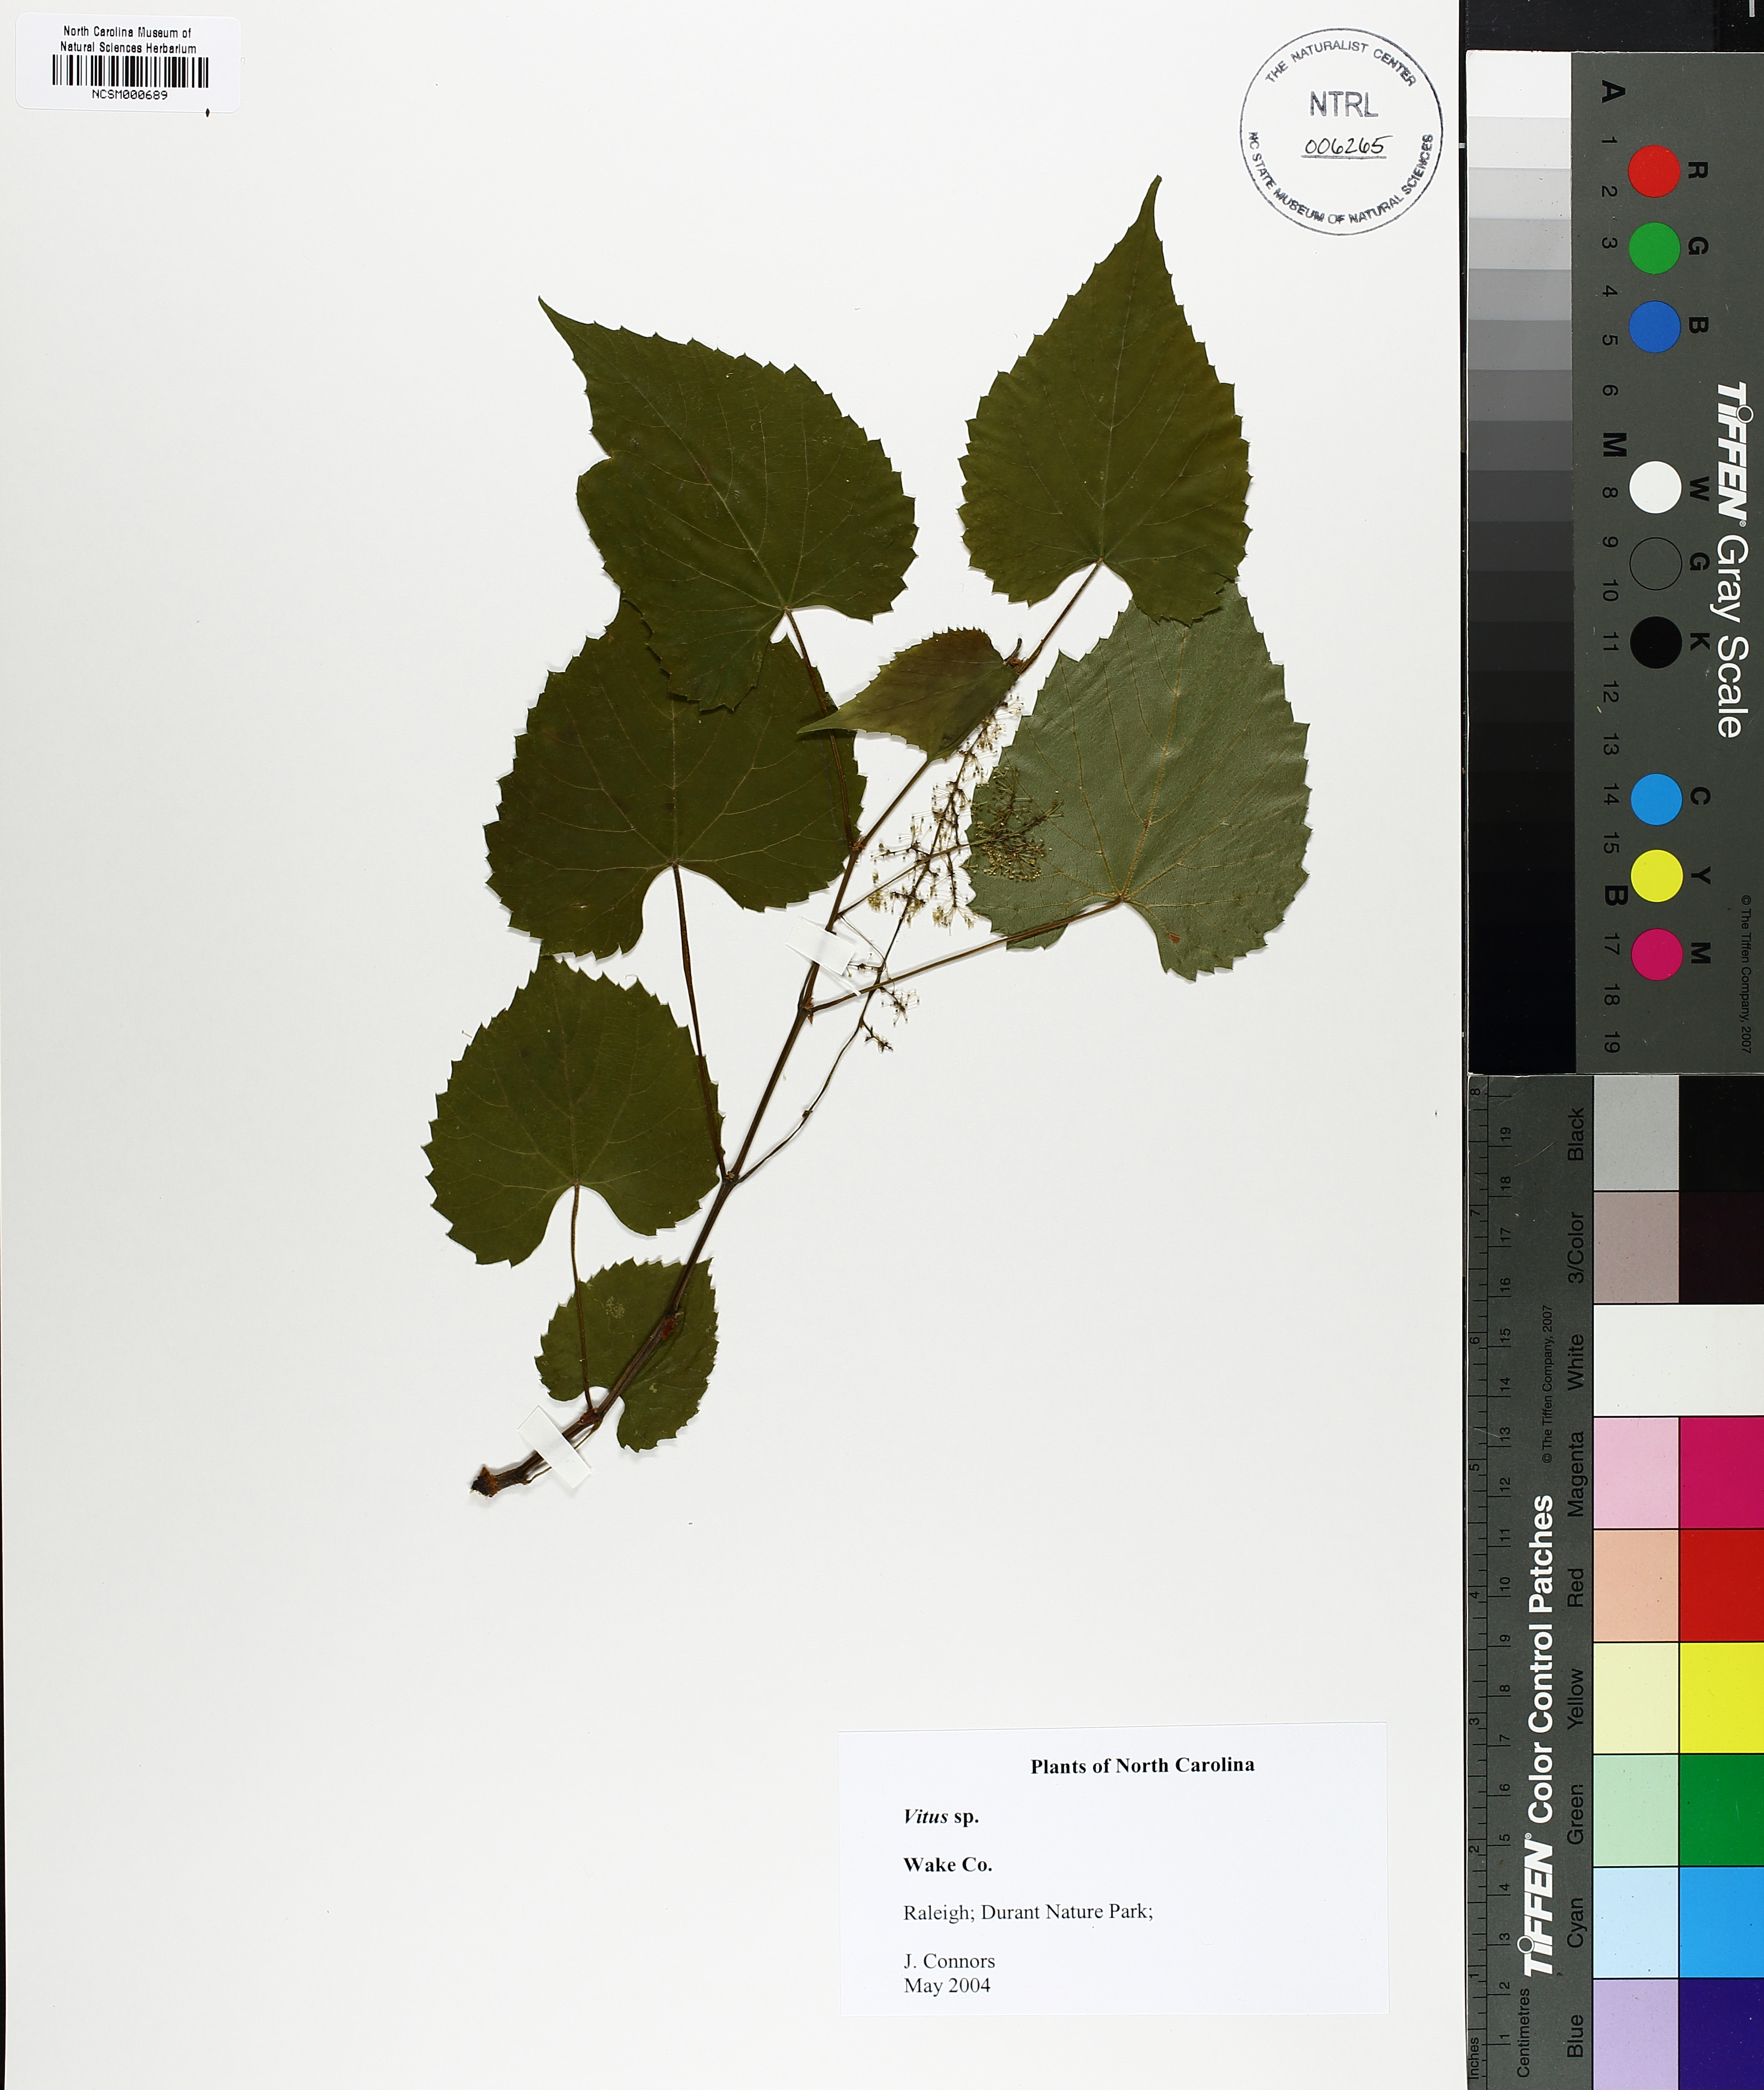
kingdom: Plantae
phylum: Tracheophyta
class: Magnoliopsida
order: Vitales
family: Vitaceae
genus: Vitis
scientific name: Vitis
